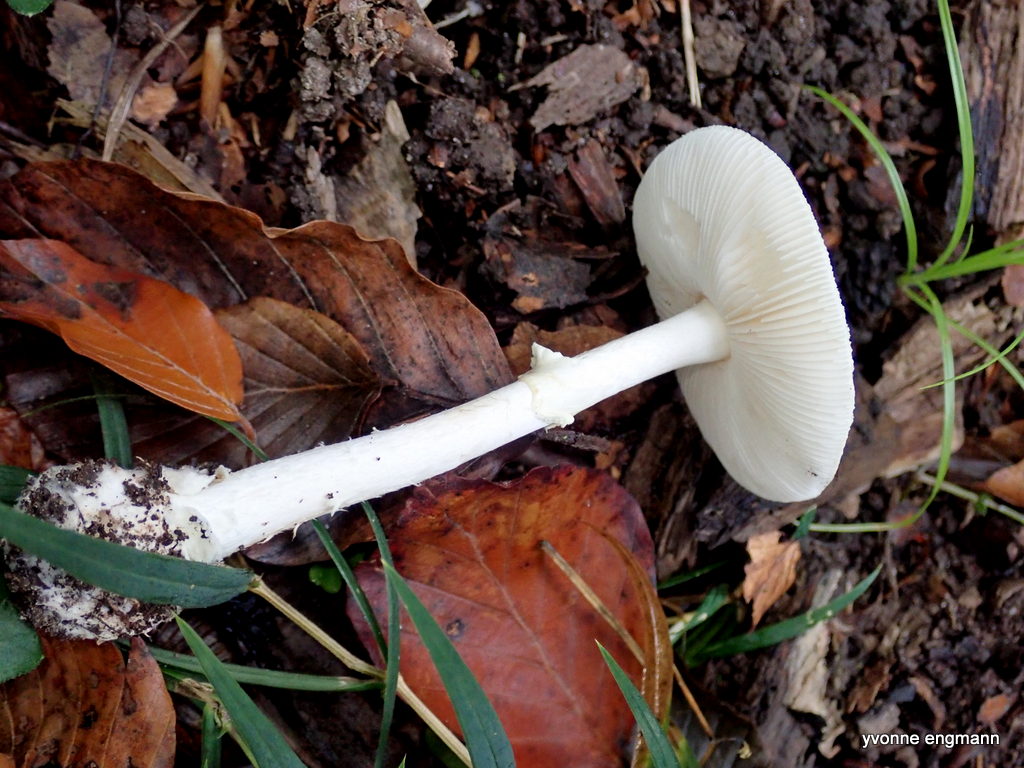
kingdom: Fungi
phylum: Basidiomycota
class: Agaricomycetes
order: Agaricales
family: Amanitaceae
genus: Amanita
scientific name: Amanita citrina
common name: False death-cap
